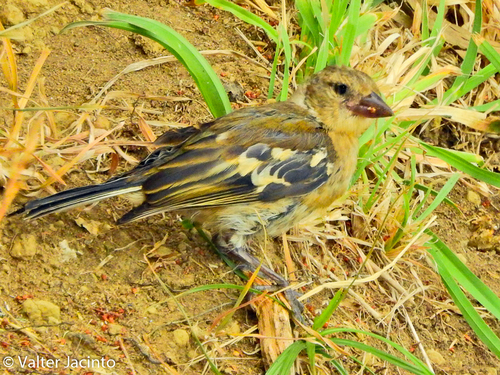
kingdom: Animalia
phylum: Chordata
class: Aves
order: Passeriformes
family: Fringillidae
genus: Fringilla
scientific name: Fringilla coelebs
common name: Common chaffinch
